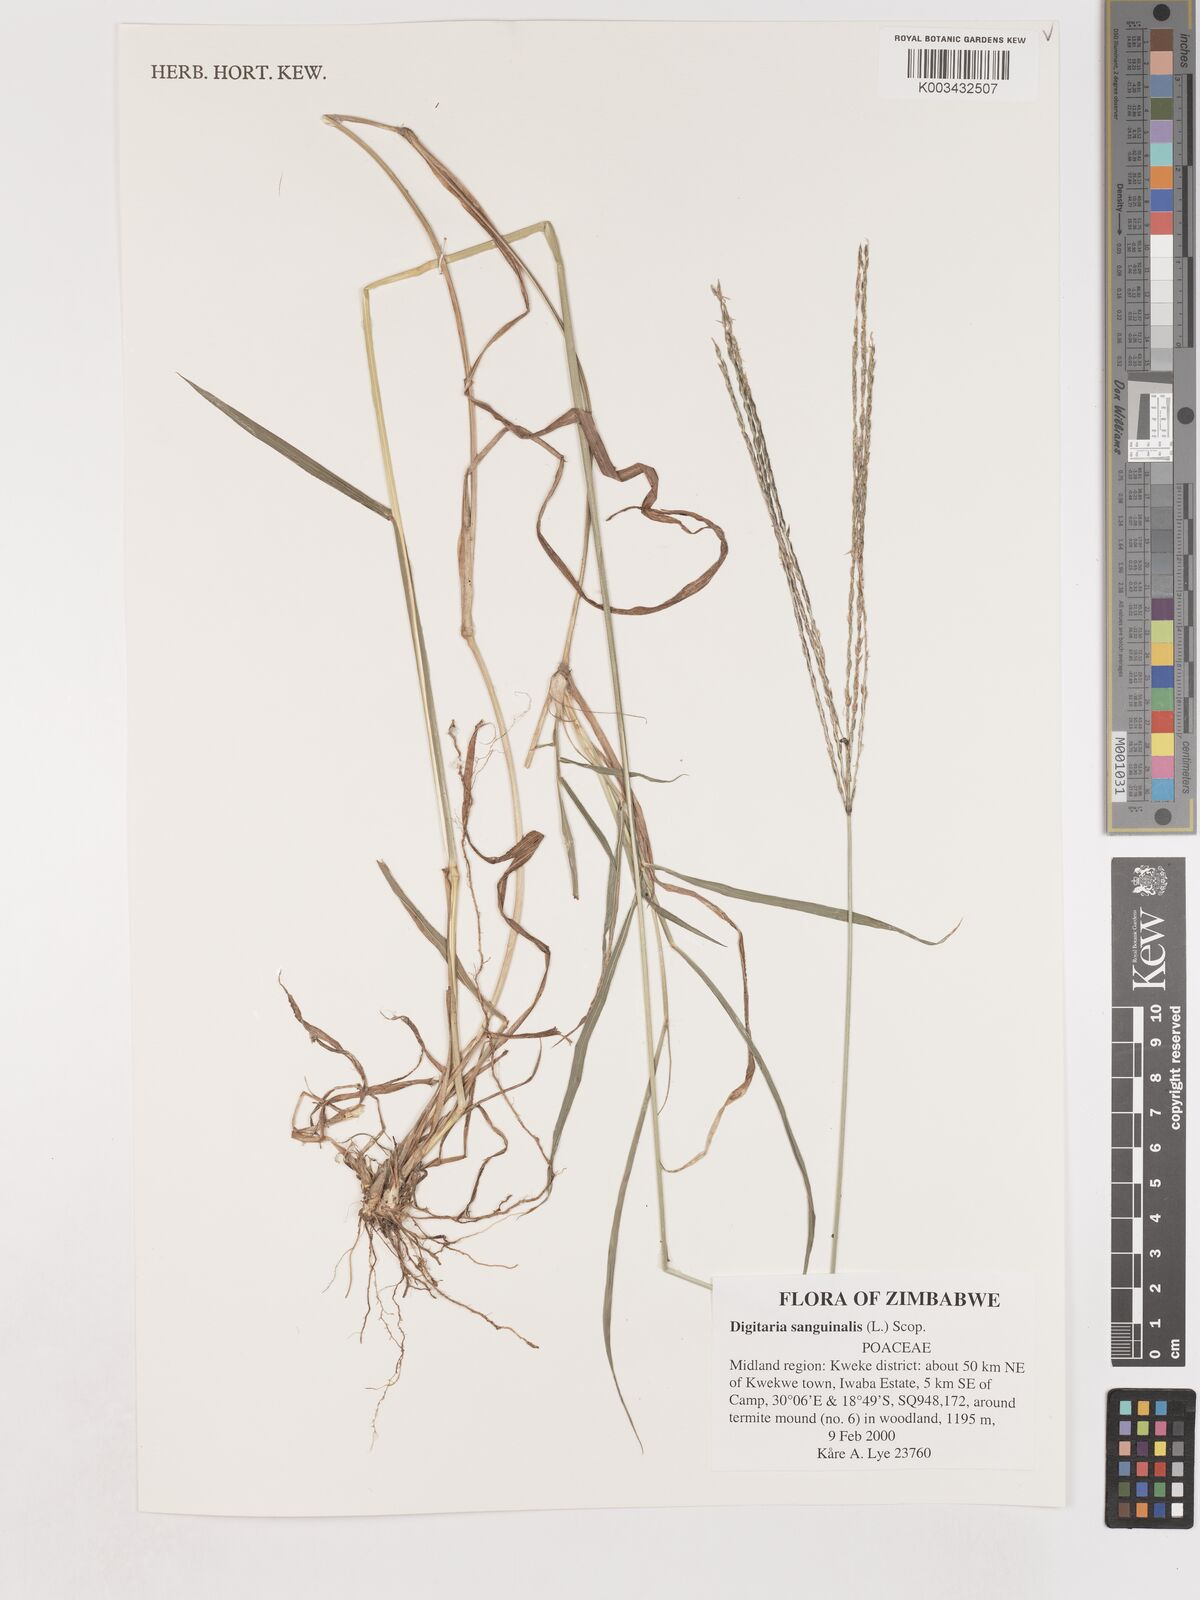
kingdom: Plantae
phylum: Tracheophyta
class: Liliopsida
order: Poales
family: Poaceae
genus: Digitaria
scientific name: Digitaria sanguinalis
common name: Hairy crabgrass
